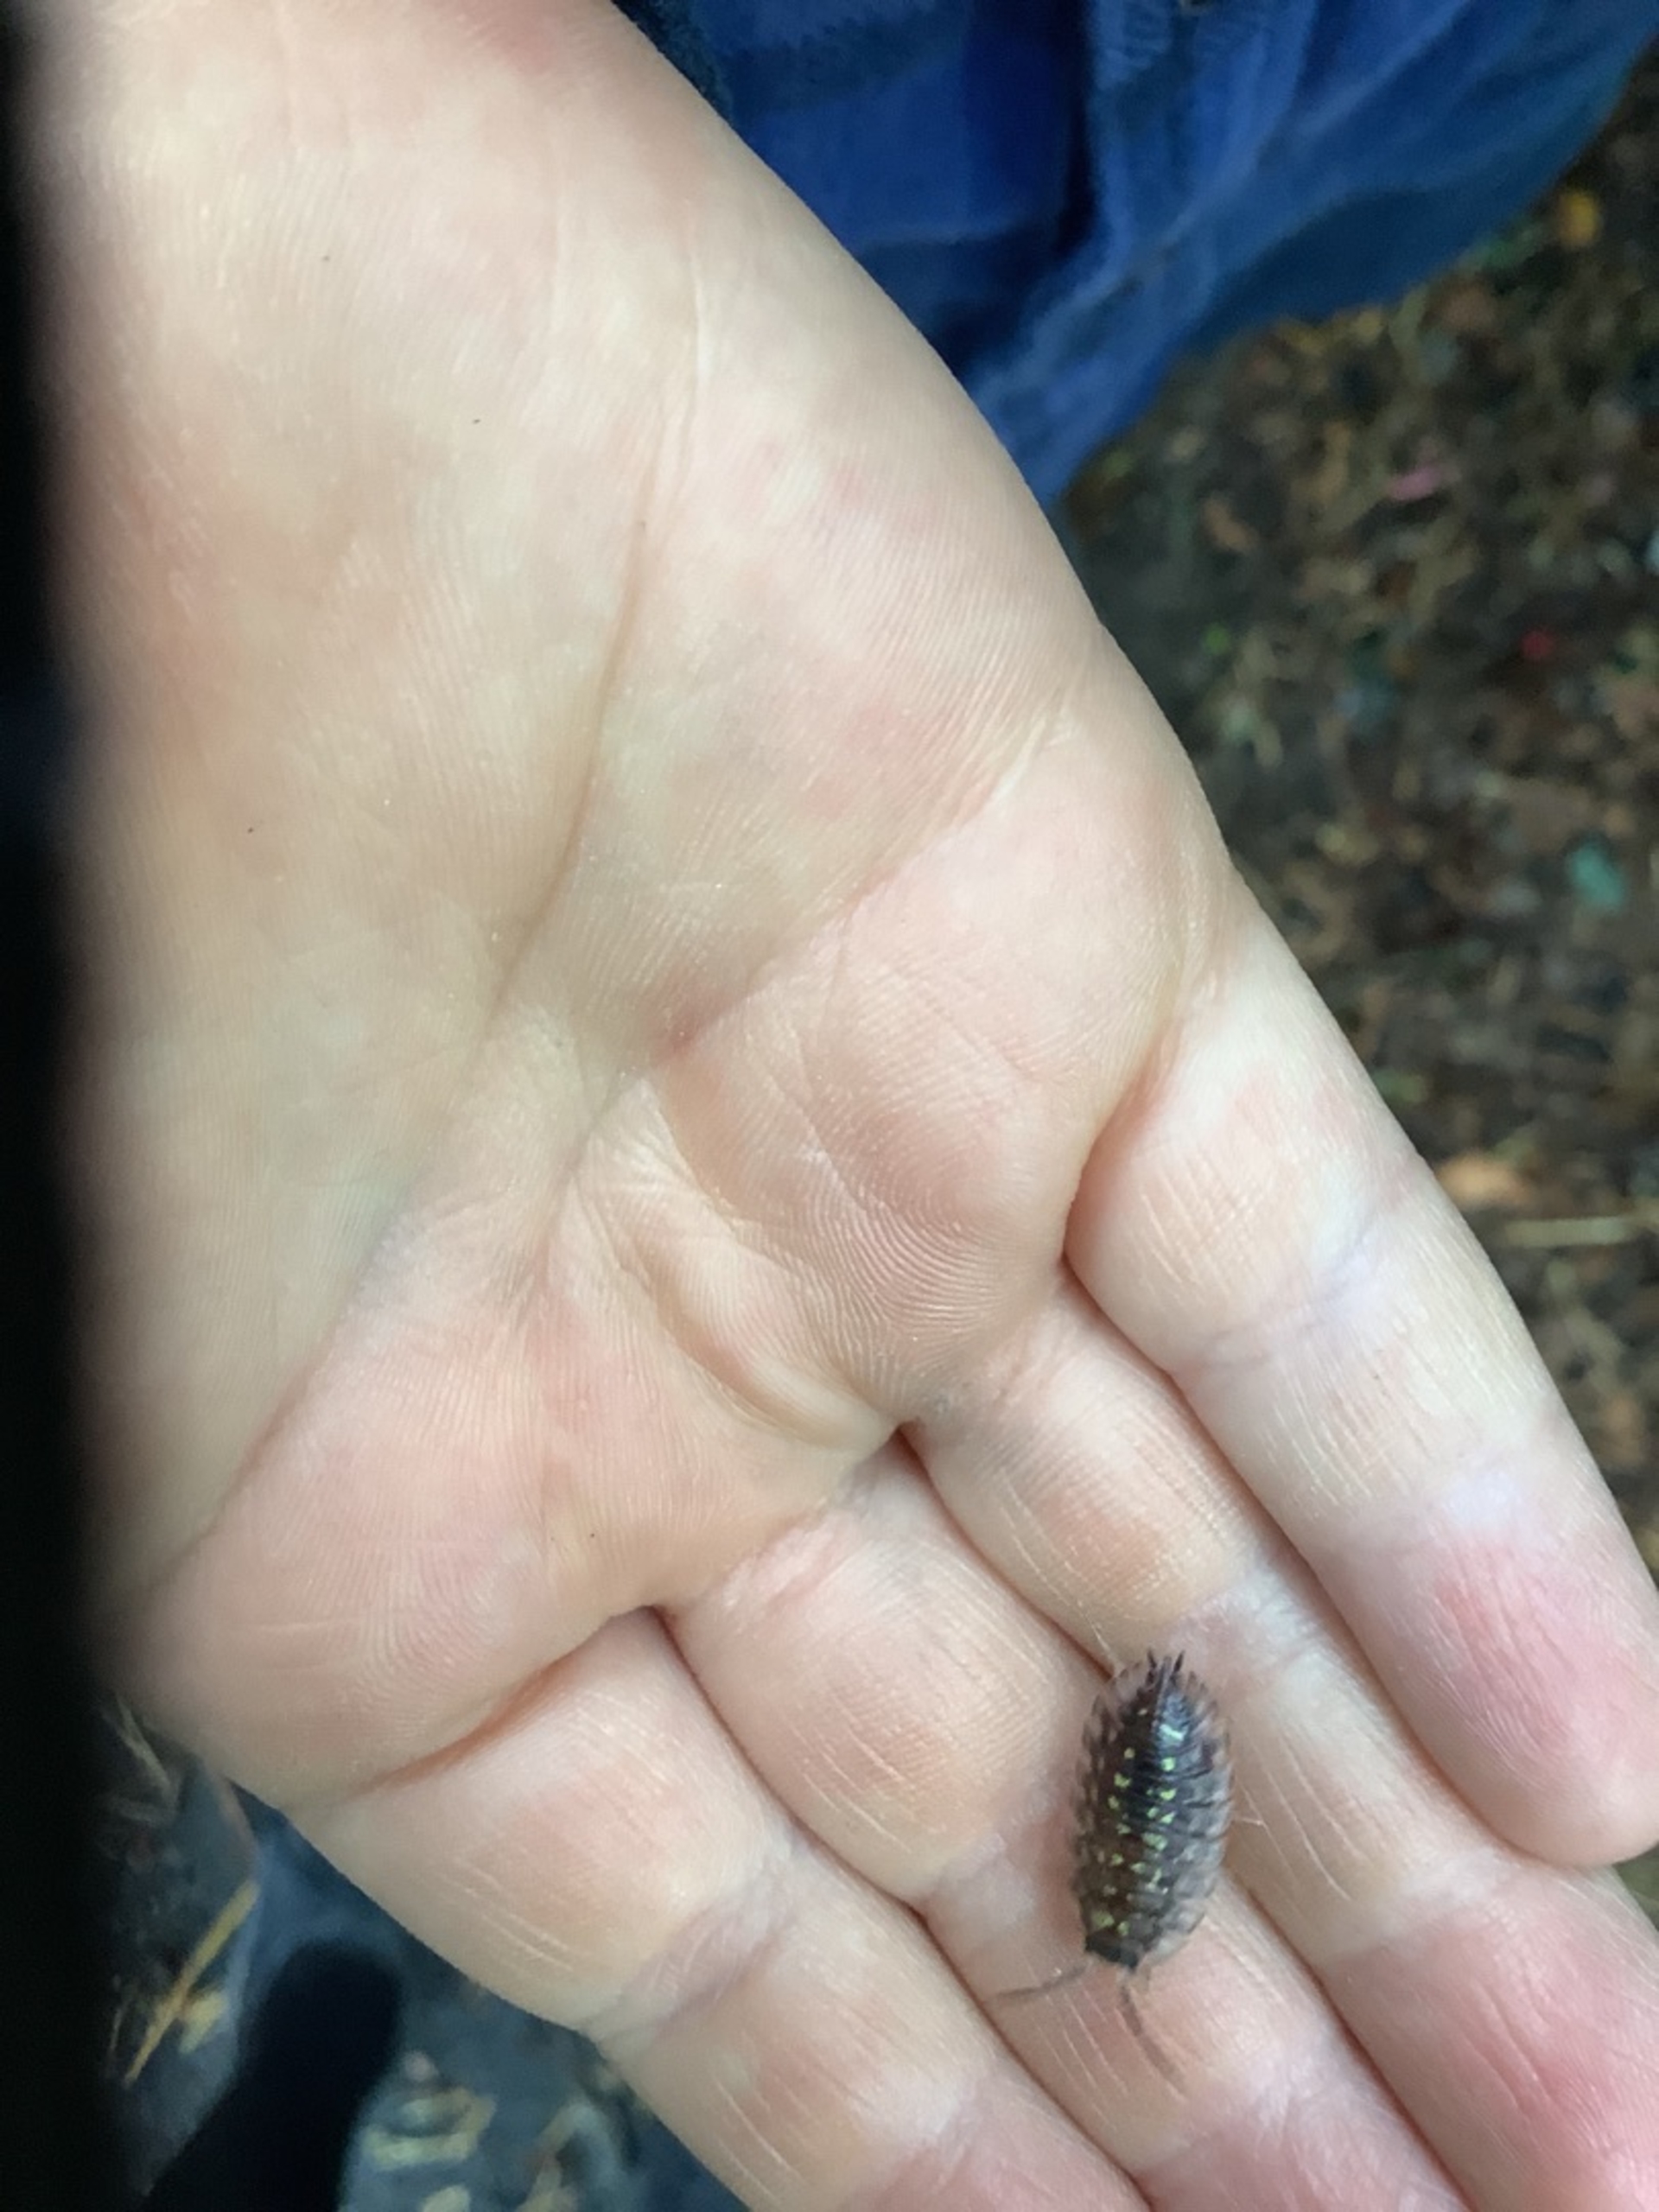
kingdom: Animalia
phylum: Arthropoda
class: Malacostraca
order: Isopoda
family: Oniscidae
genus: Oniscus
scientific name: Oniscus asellus
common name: Glat bænkebider
